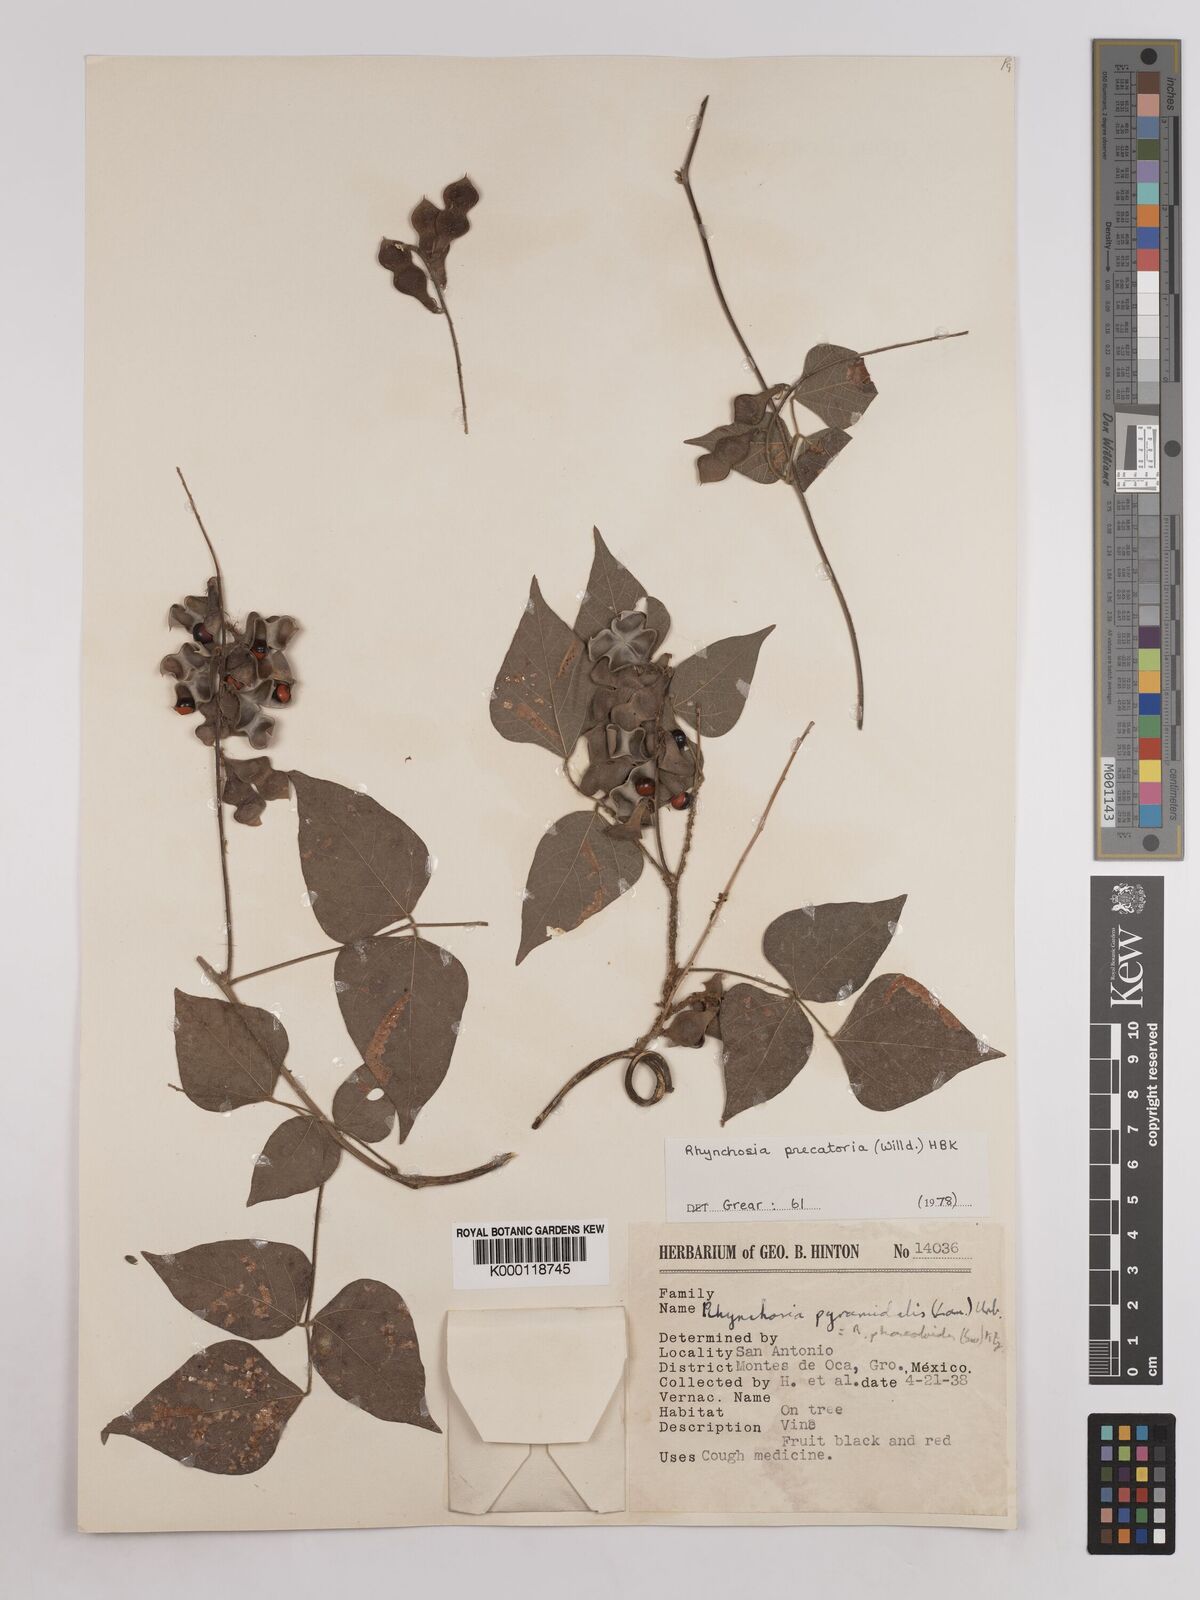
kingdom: Plantae
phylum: Tracheophyta
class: Magnoliopsida
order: Fabales
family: Fabaceae
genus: Rhynchosia
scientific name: Rhynchosia
